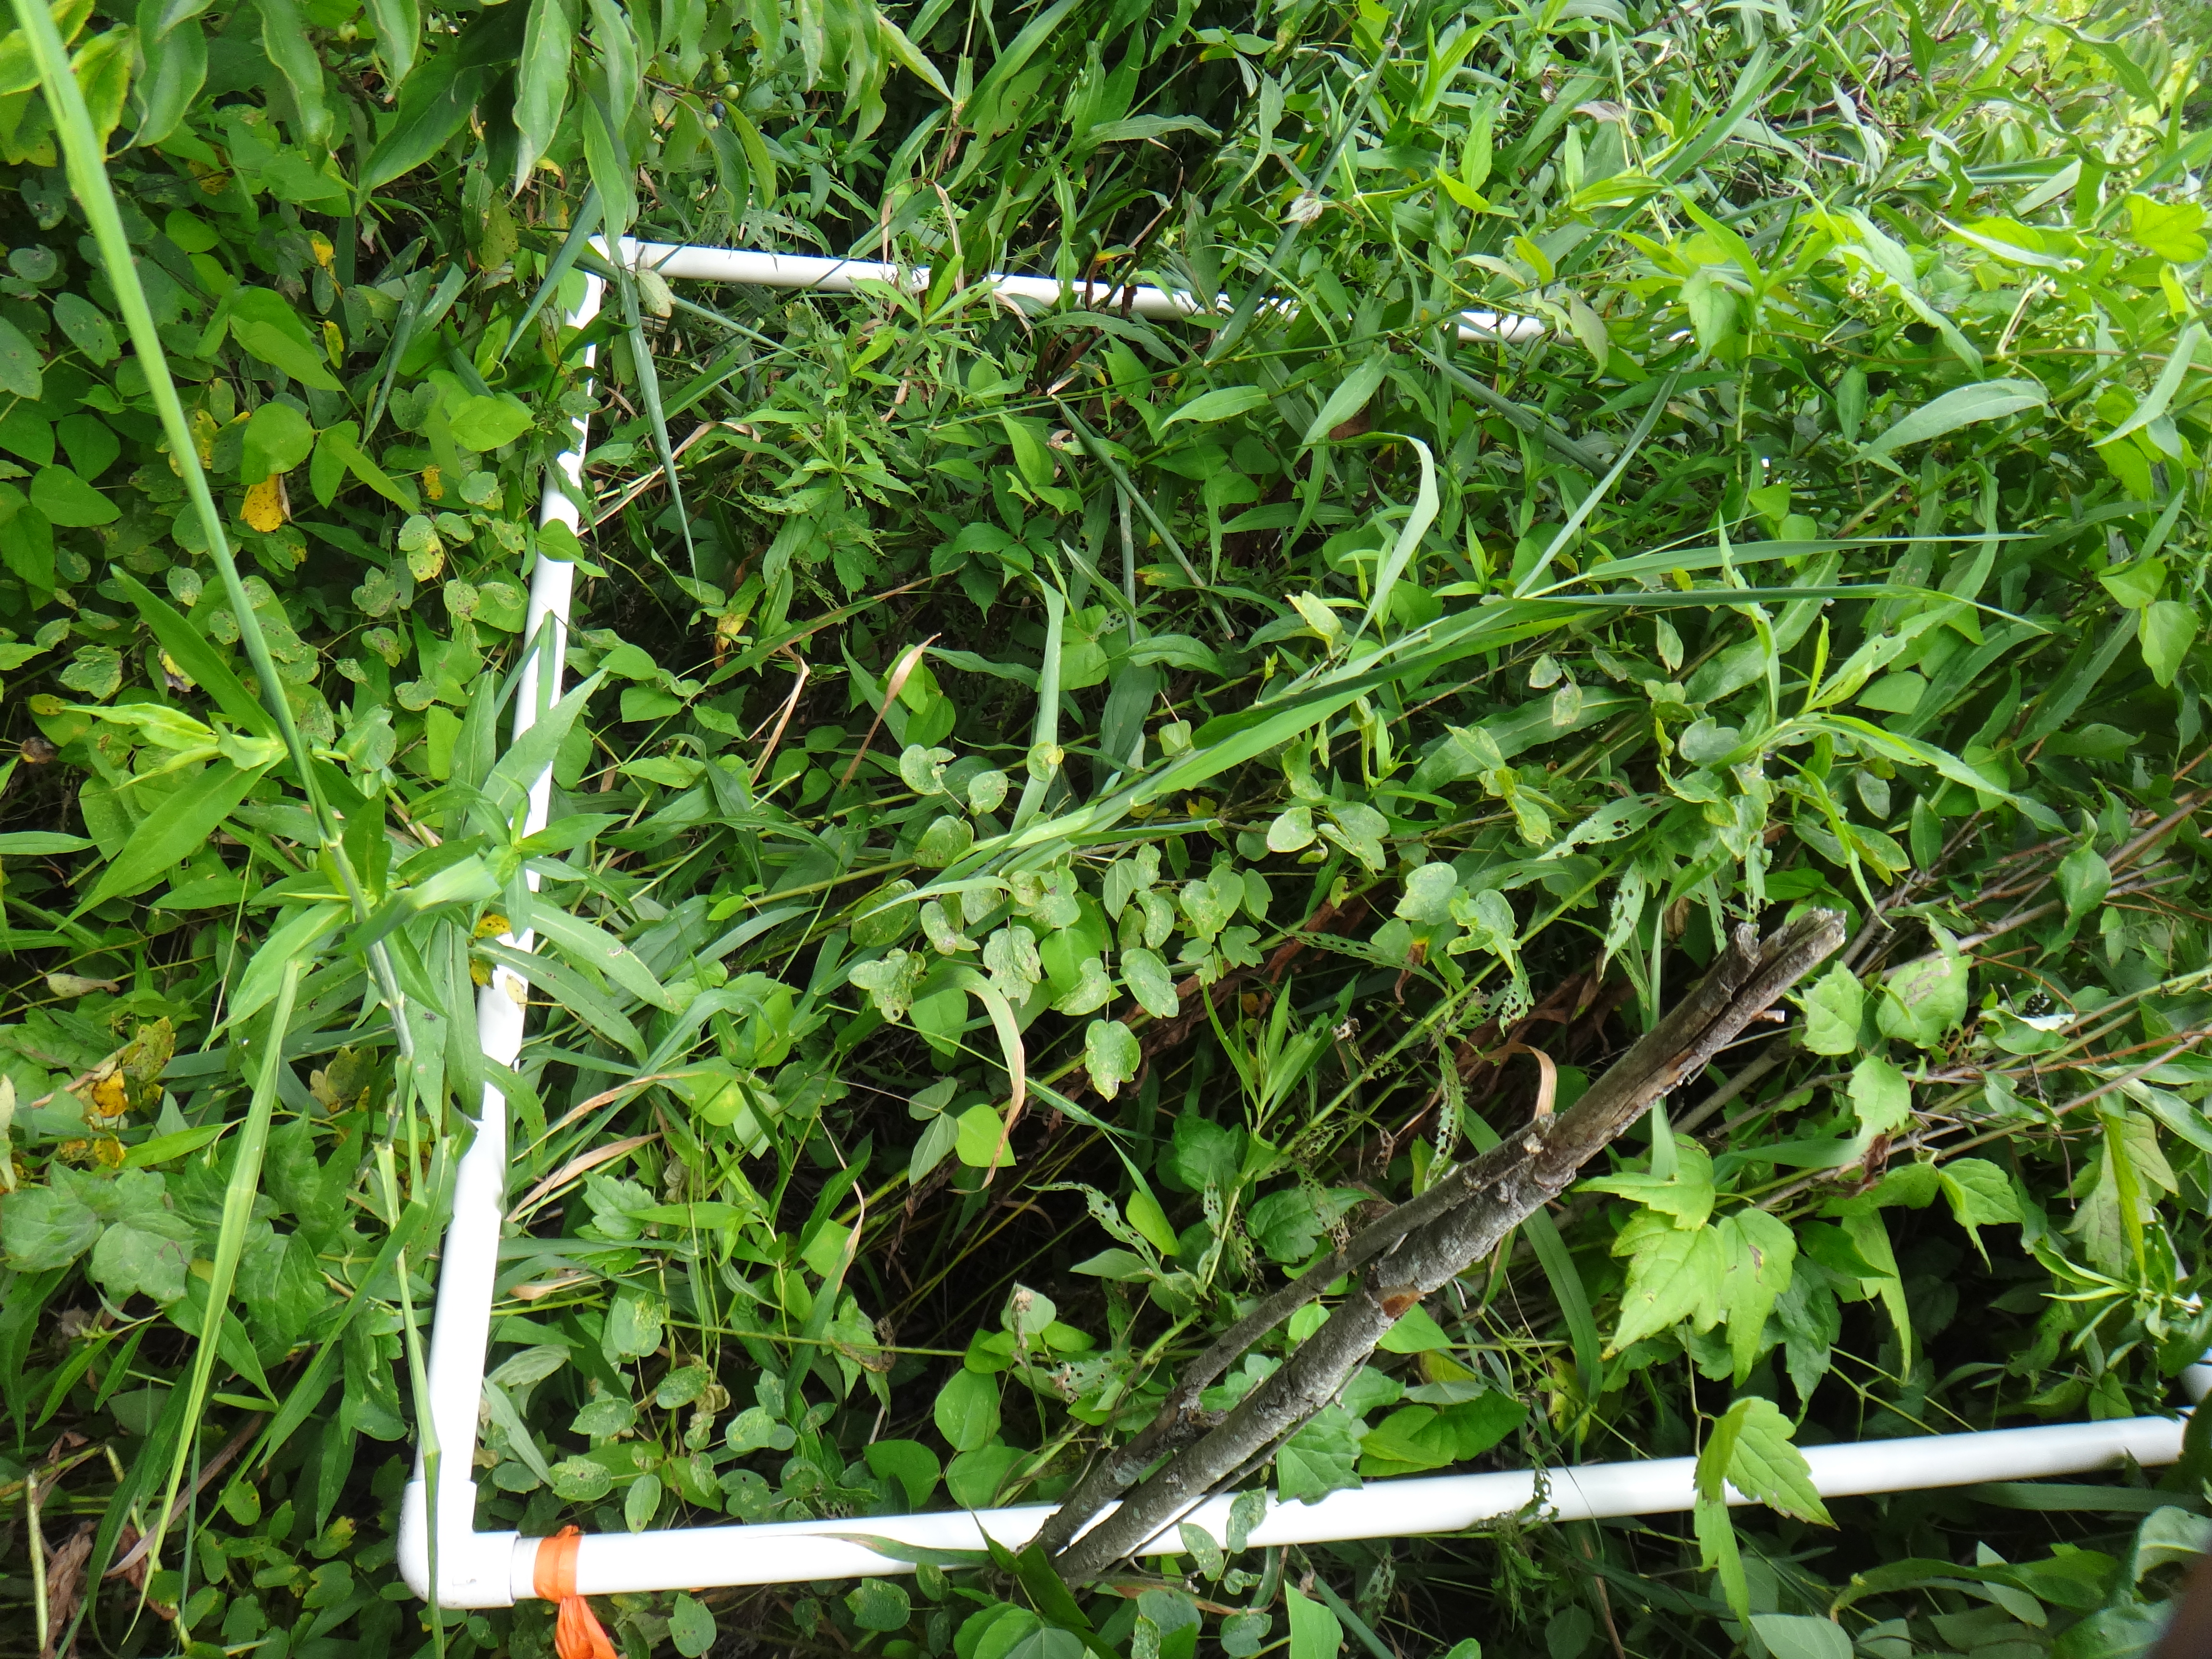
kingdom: Plantae
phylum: Tracheophyta
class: Magnoliopsida
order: Rosales
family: Rosaceae
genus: Rubus
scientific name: Rubus idaeus
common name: Raspberry
